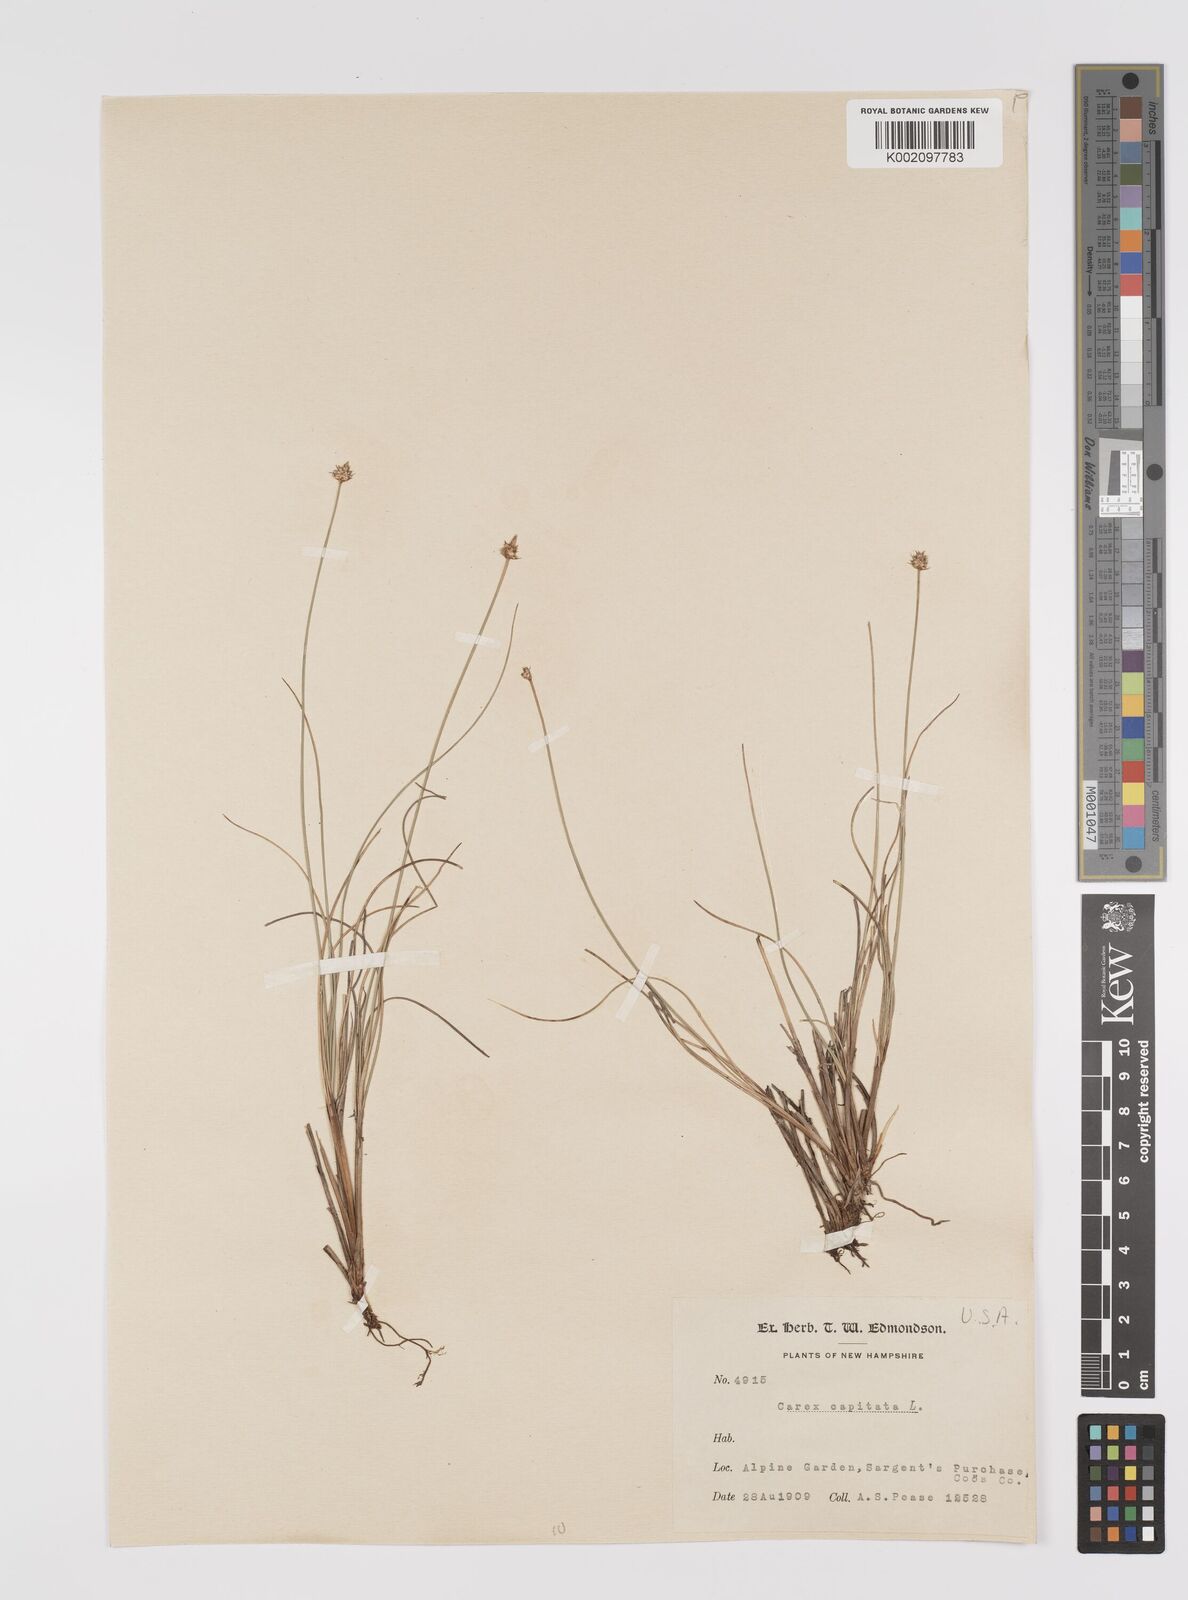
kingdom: Plantae
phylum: Tracheophyta
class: Liliopsida
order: Poales
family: Cyperaceae
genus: Carex
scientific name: Carex capitata
